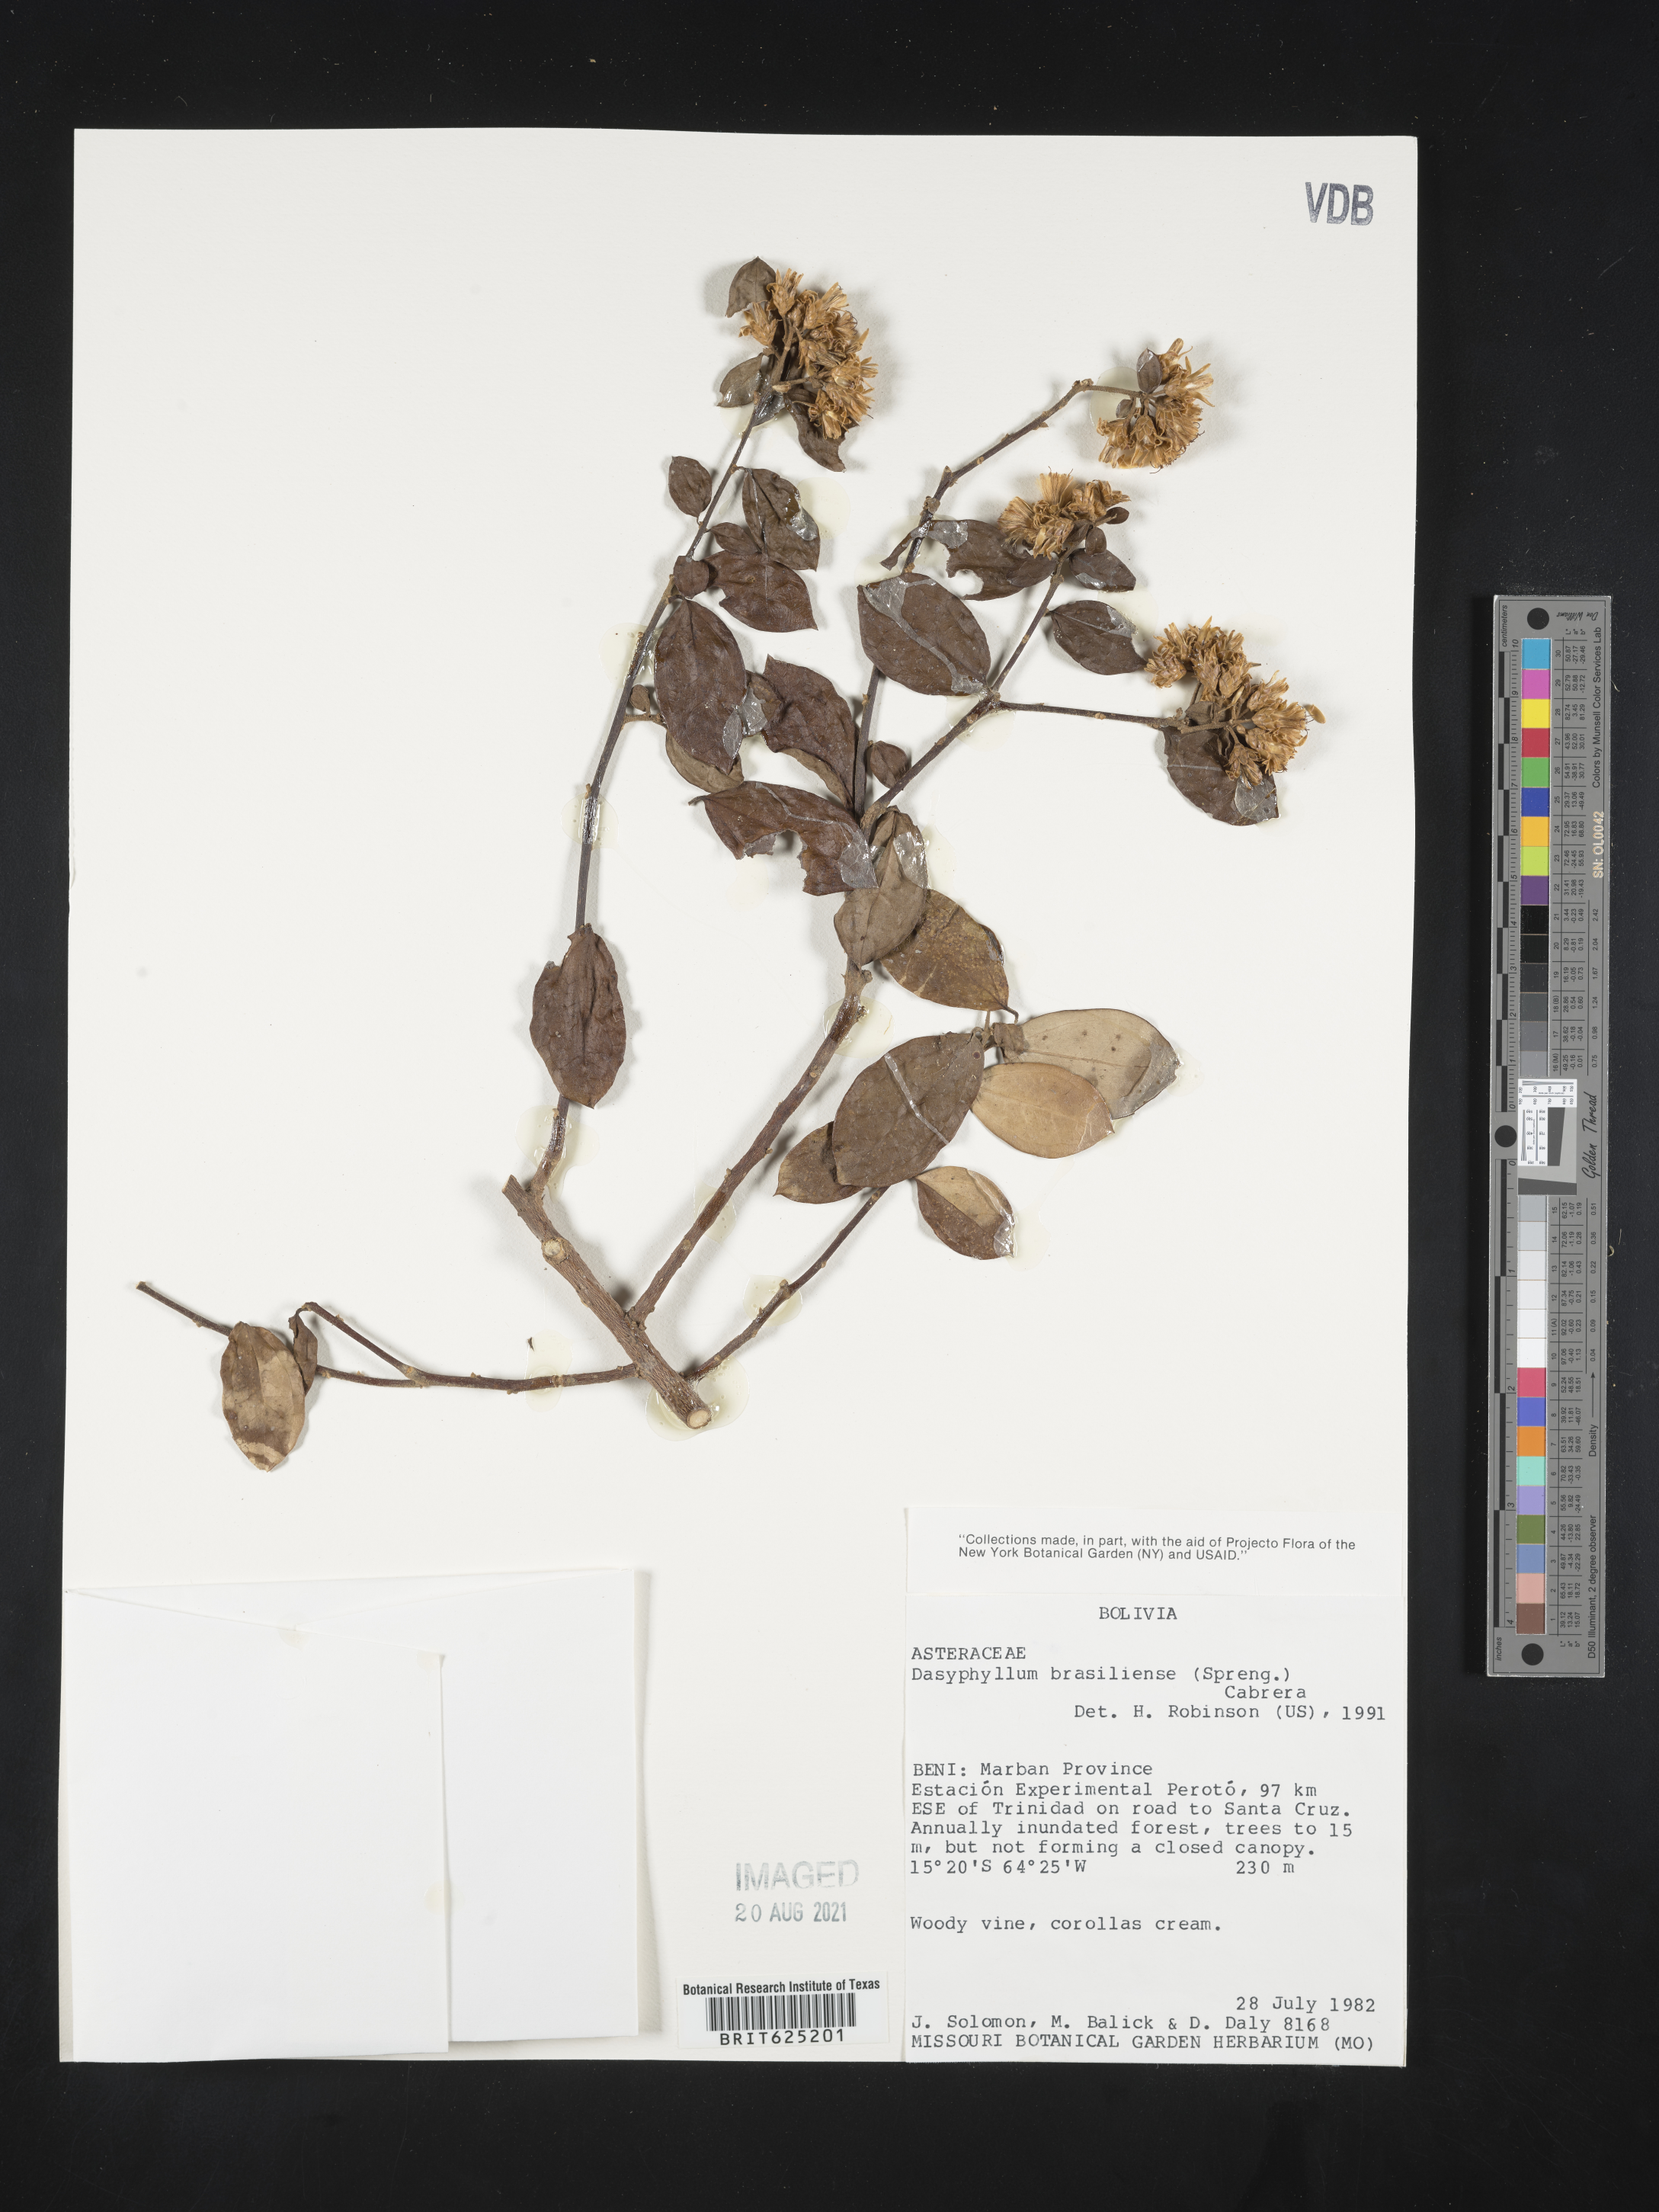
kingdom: Plantae
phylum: Tracheophyta
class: Magnoliopsida
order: Asterales
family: Asteraceae
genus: Dasyphyllum
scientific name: Dasyphyllum brasiliense
